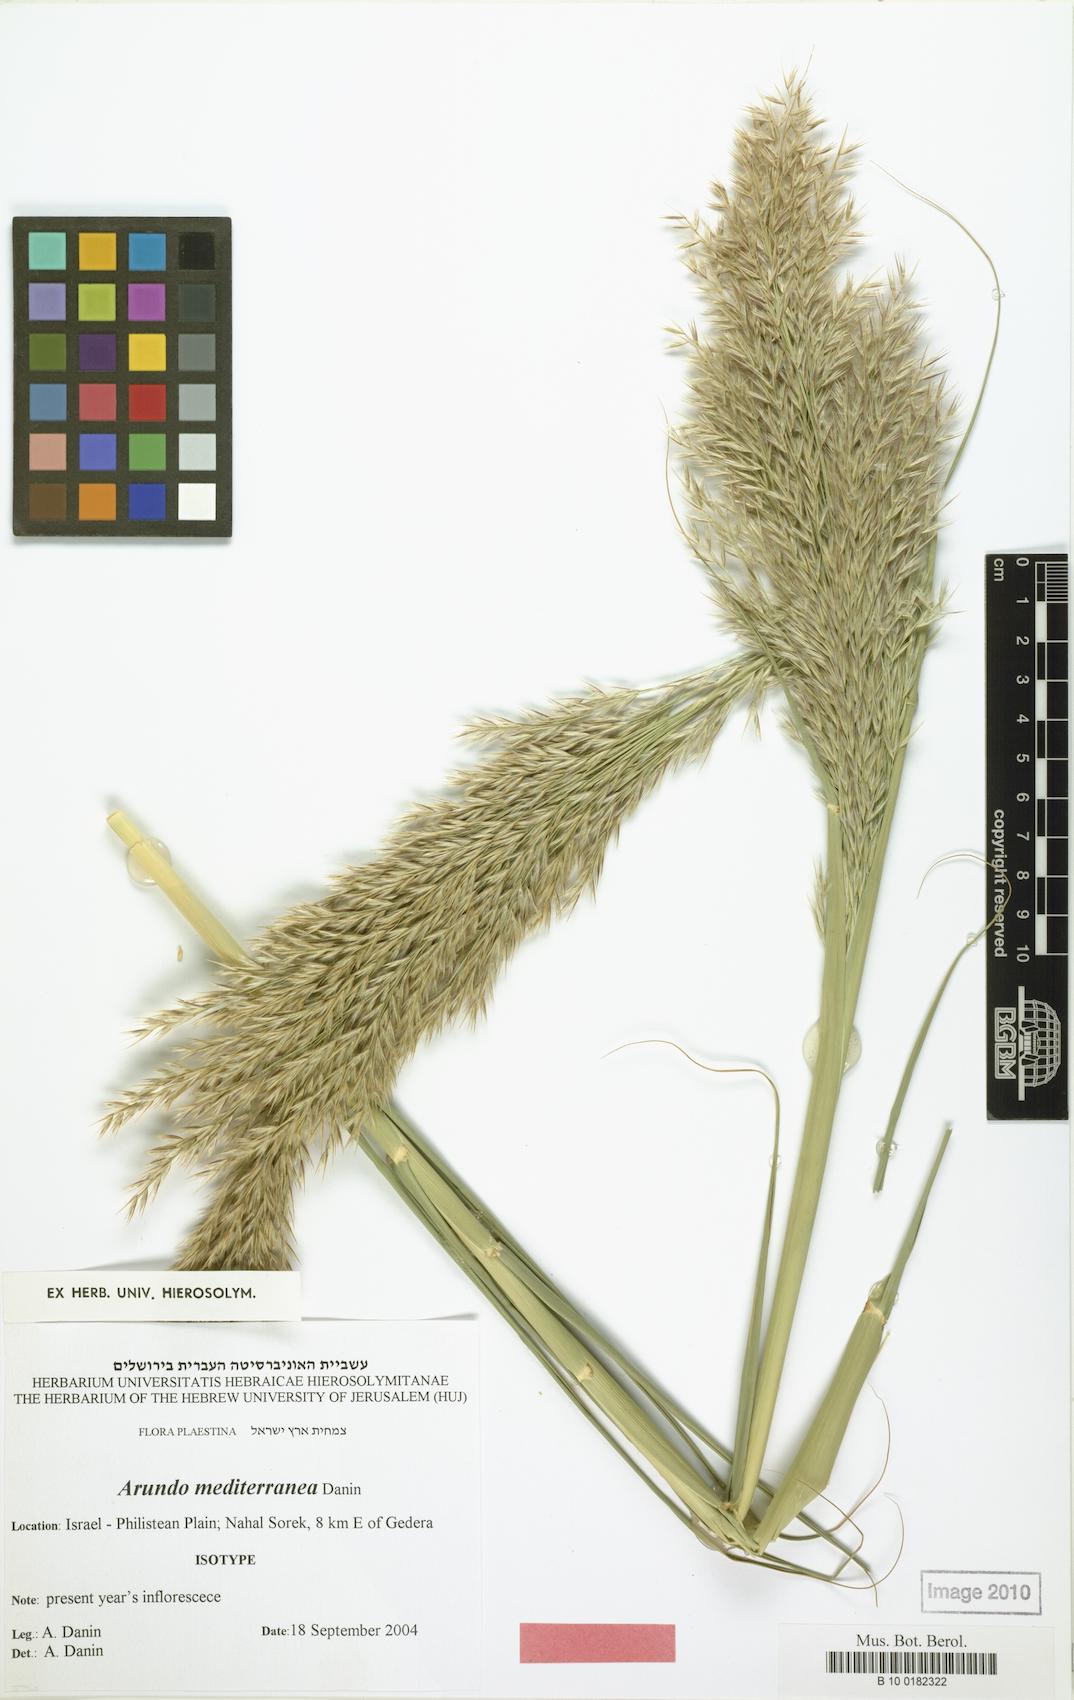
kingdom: Plantae
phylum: Tracheophyta
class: Liliopsida
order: Poales
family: Poaceae
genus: Arundo
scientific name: Arundo micrantha
